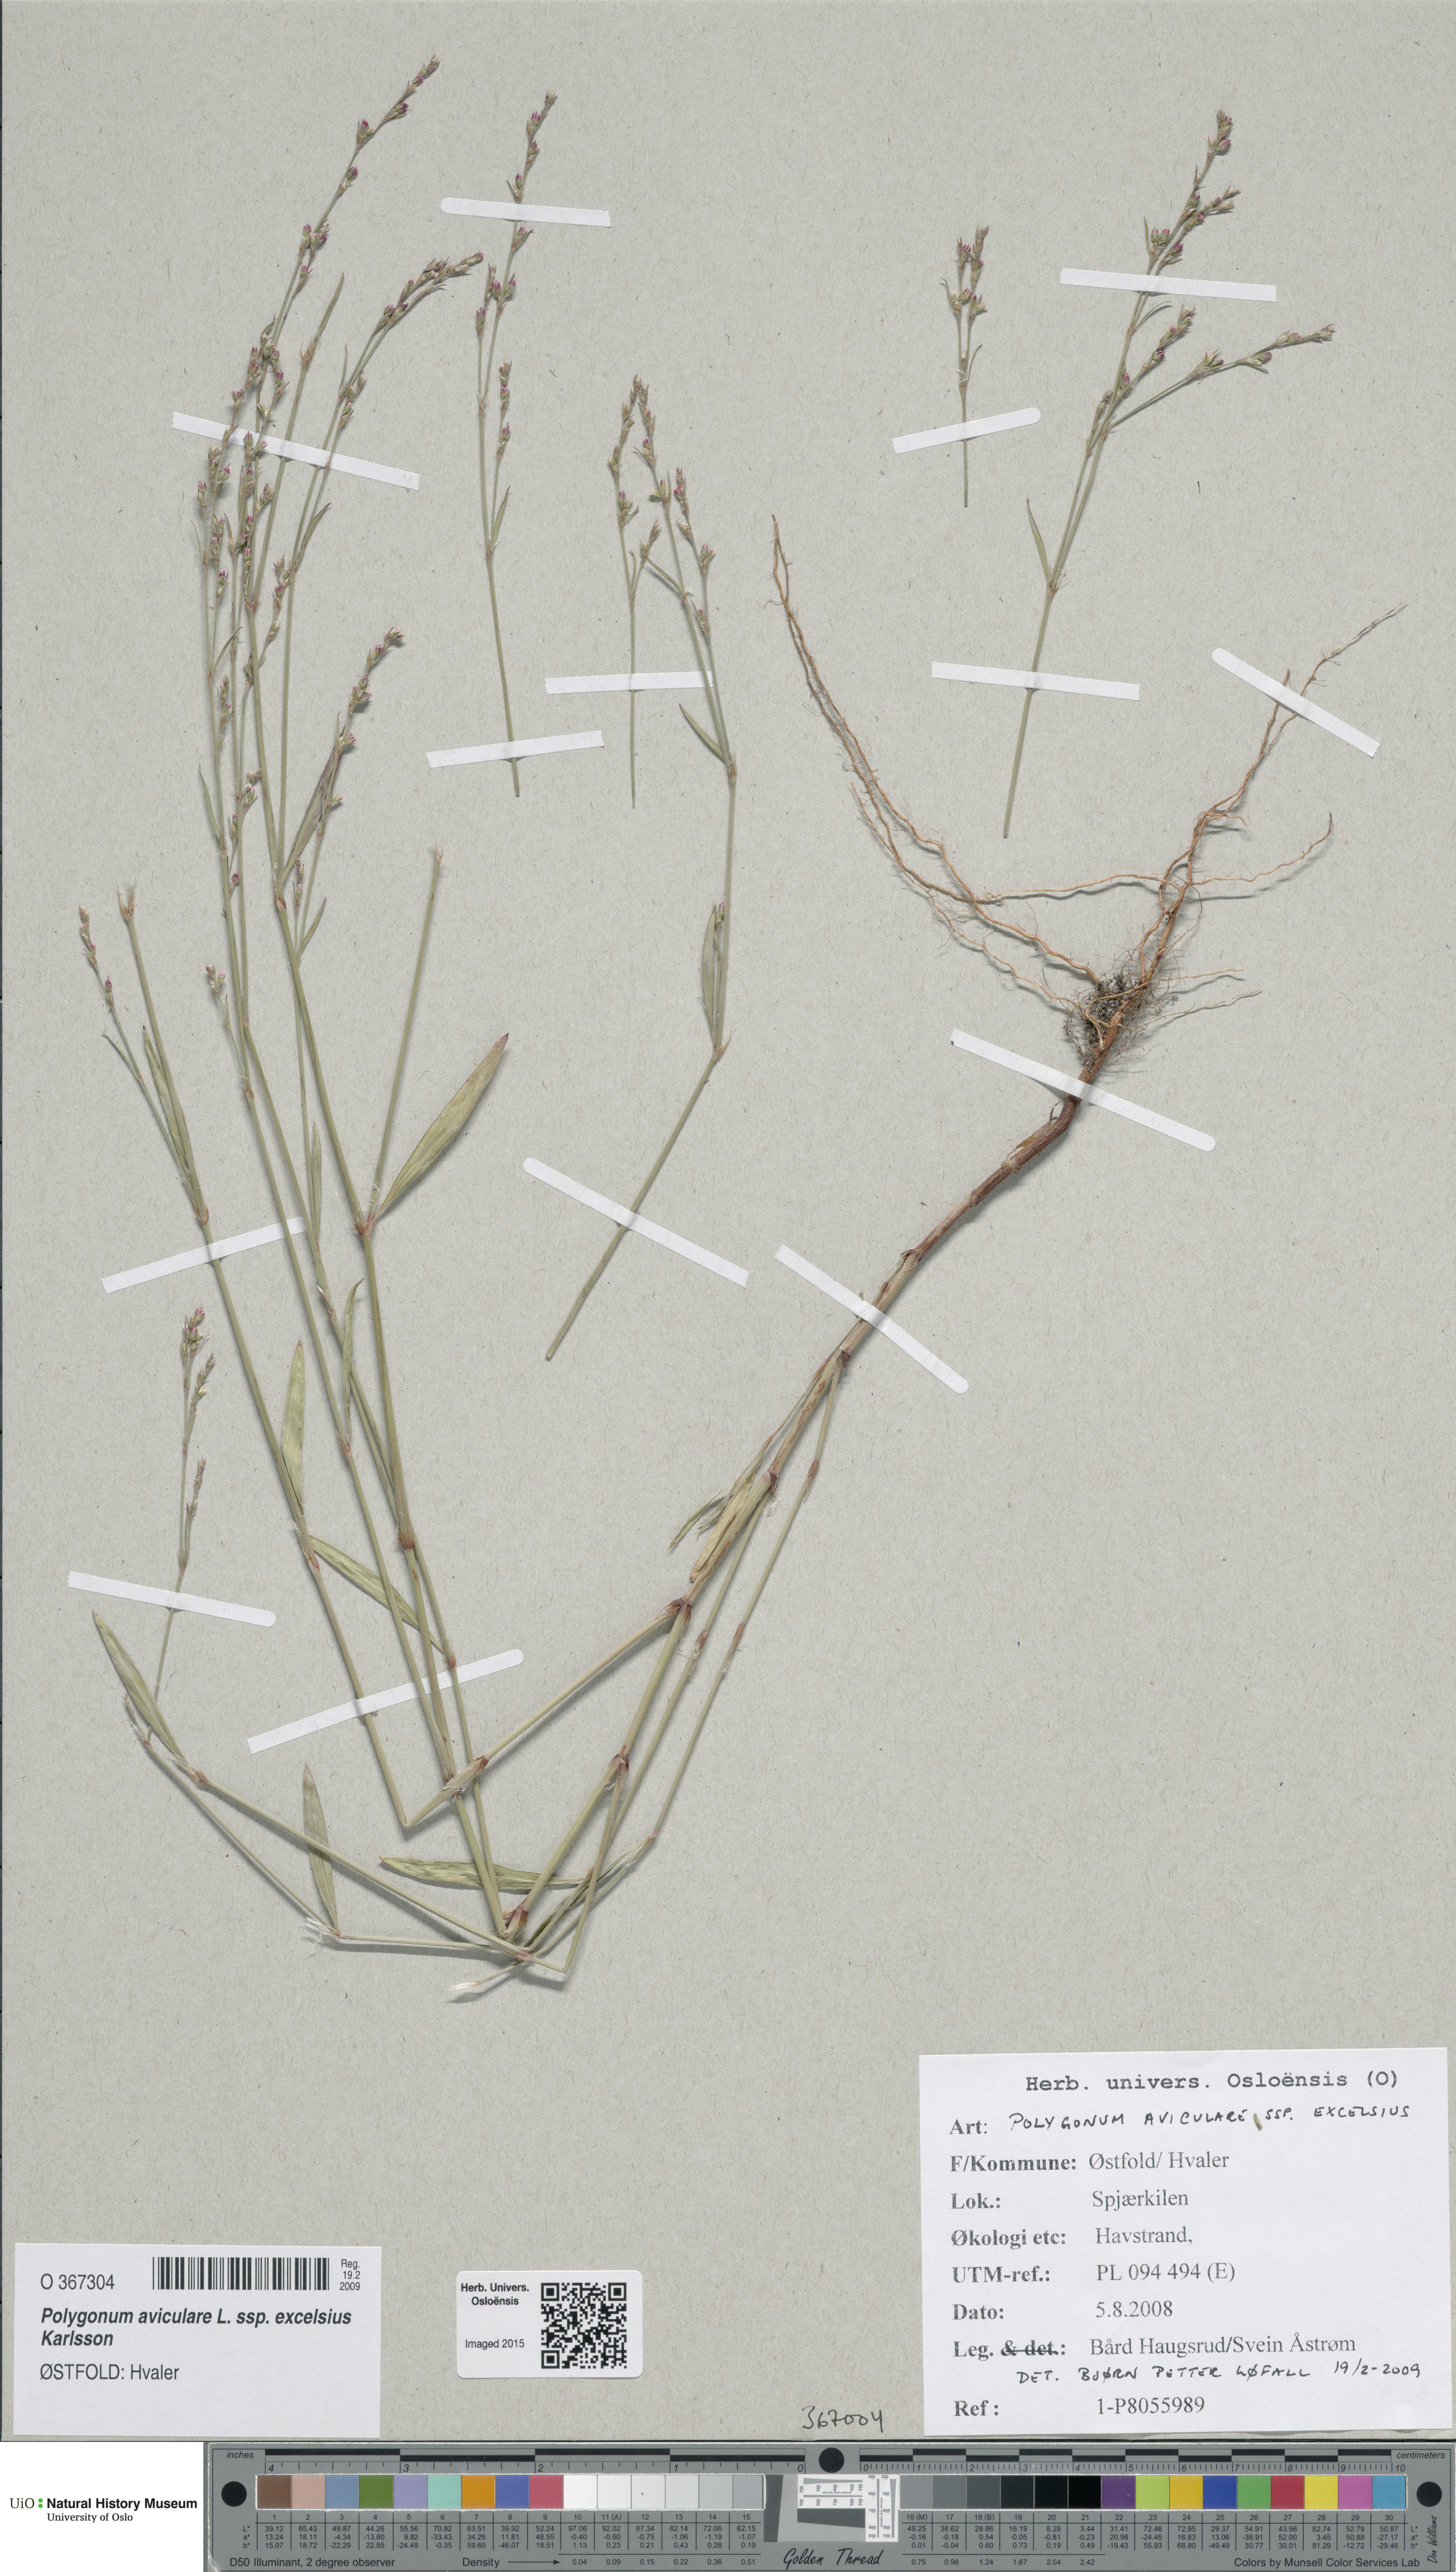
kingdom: Plantae
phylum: Tracheophyta
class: Magnoliopsida
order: Caryophyllales
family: Polygonaceae
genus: Polygonum
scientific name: Polygonum excelsius
